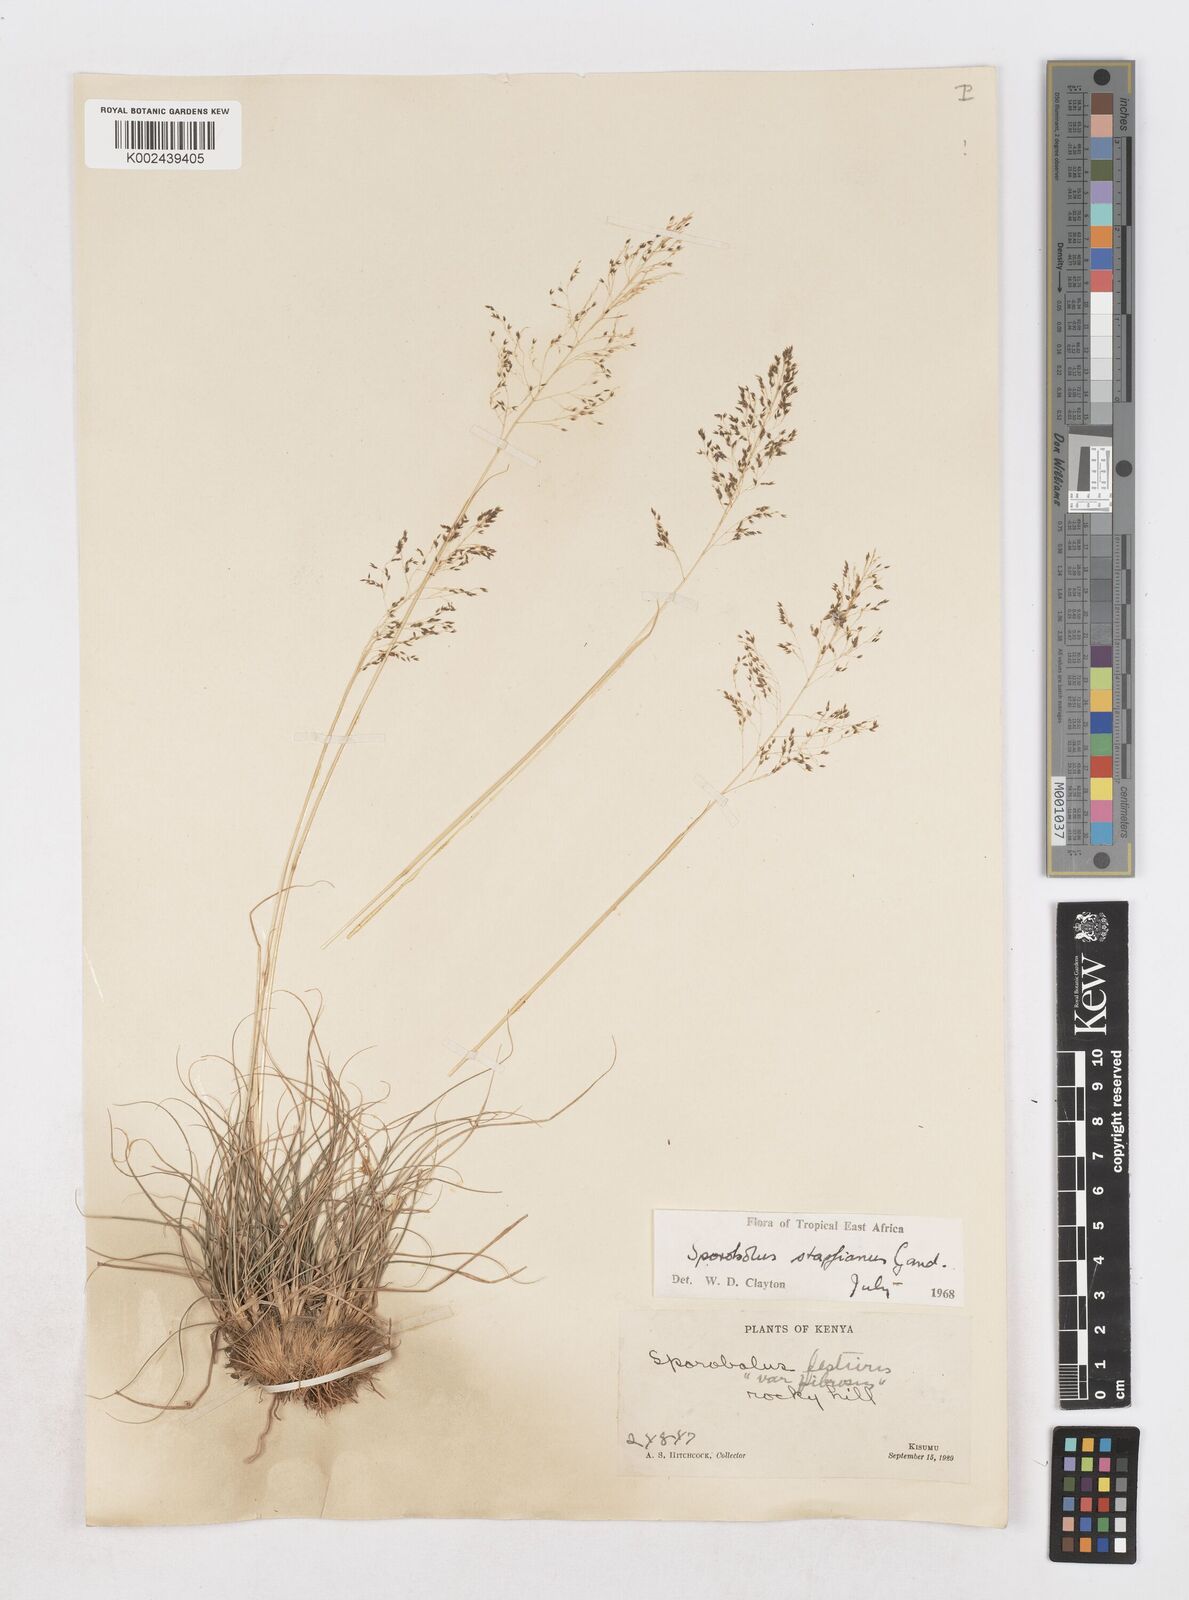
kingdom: Plantae
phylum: Tracheophyta
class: Liliopsida
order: Poales
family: Poaceae
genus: Sporobolus
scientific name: Sporobolus stapfianus
